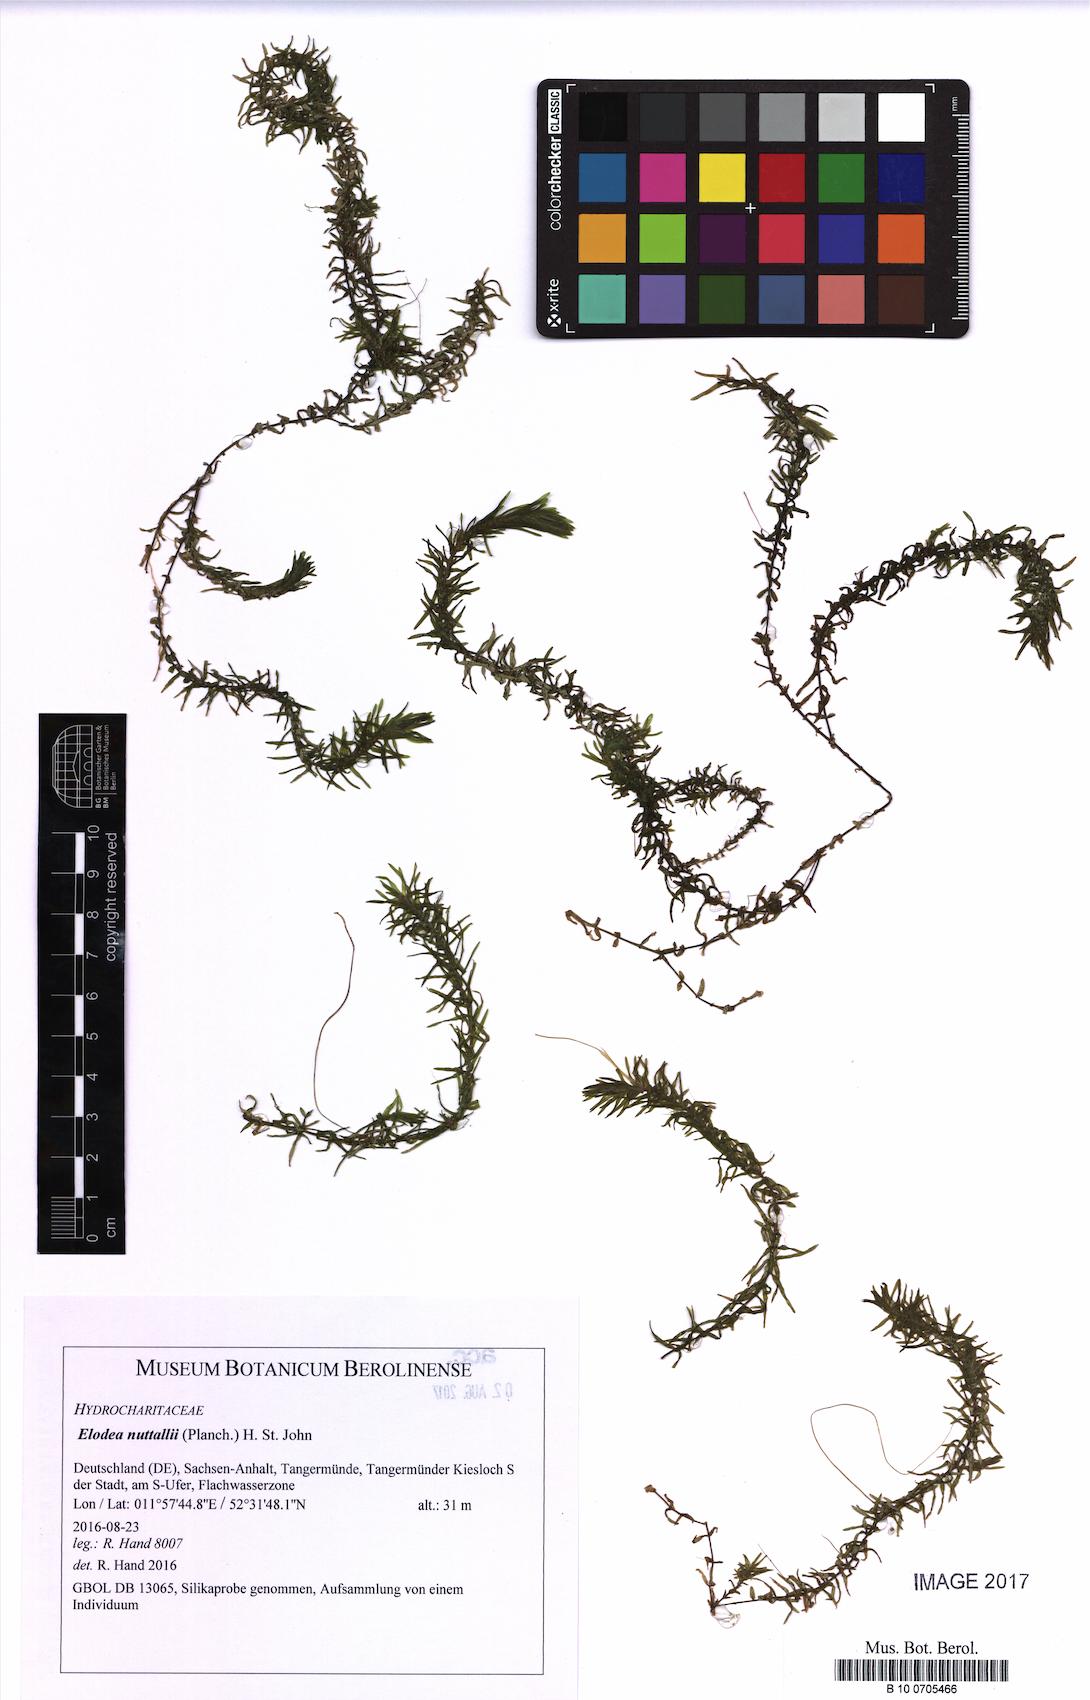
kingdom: Plantae
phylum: Tracheophyta
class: Liliopsida
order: Alismatales
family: Hydrocharitaceae
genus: Elodea
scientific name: Elodea nuttallii
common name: Nuttall's waterweed
